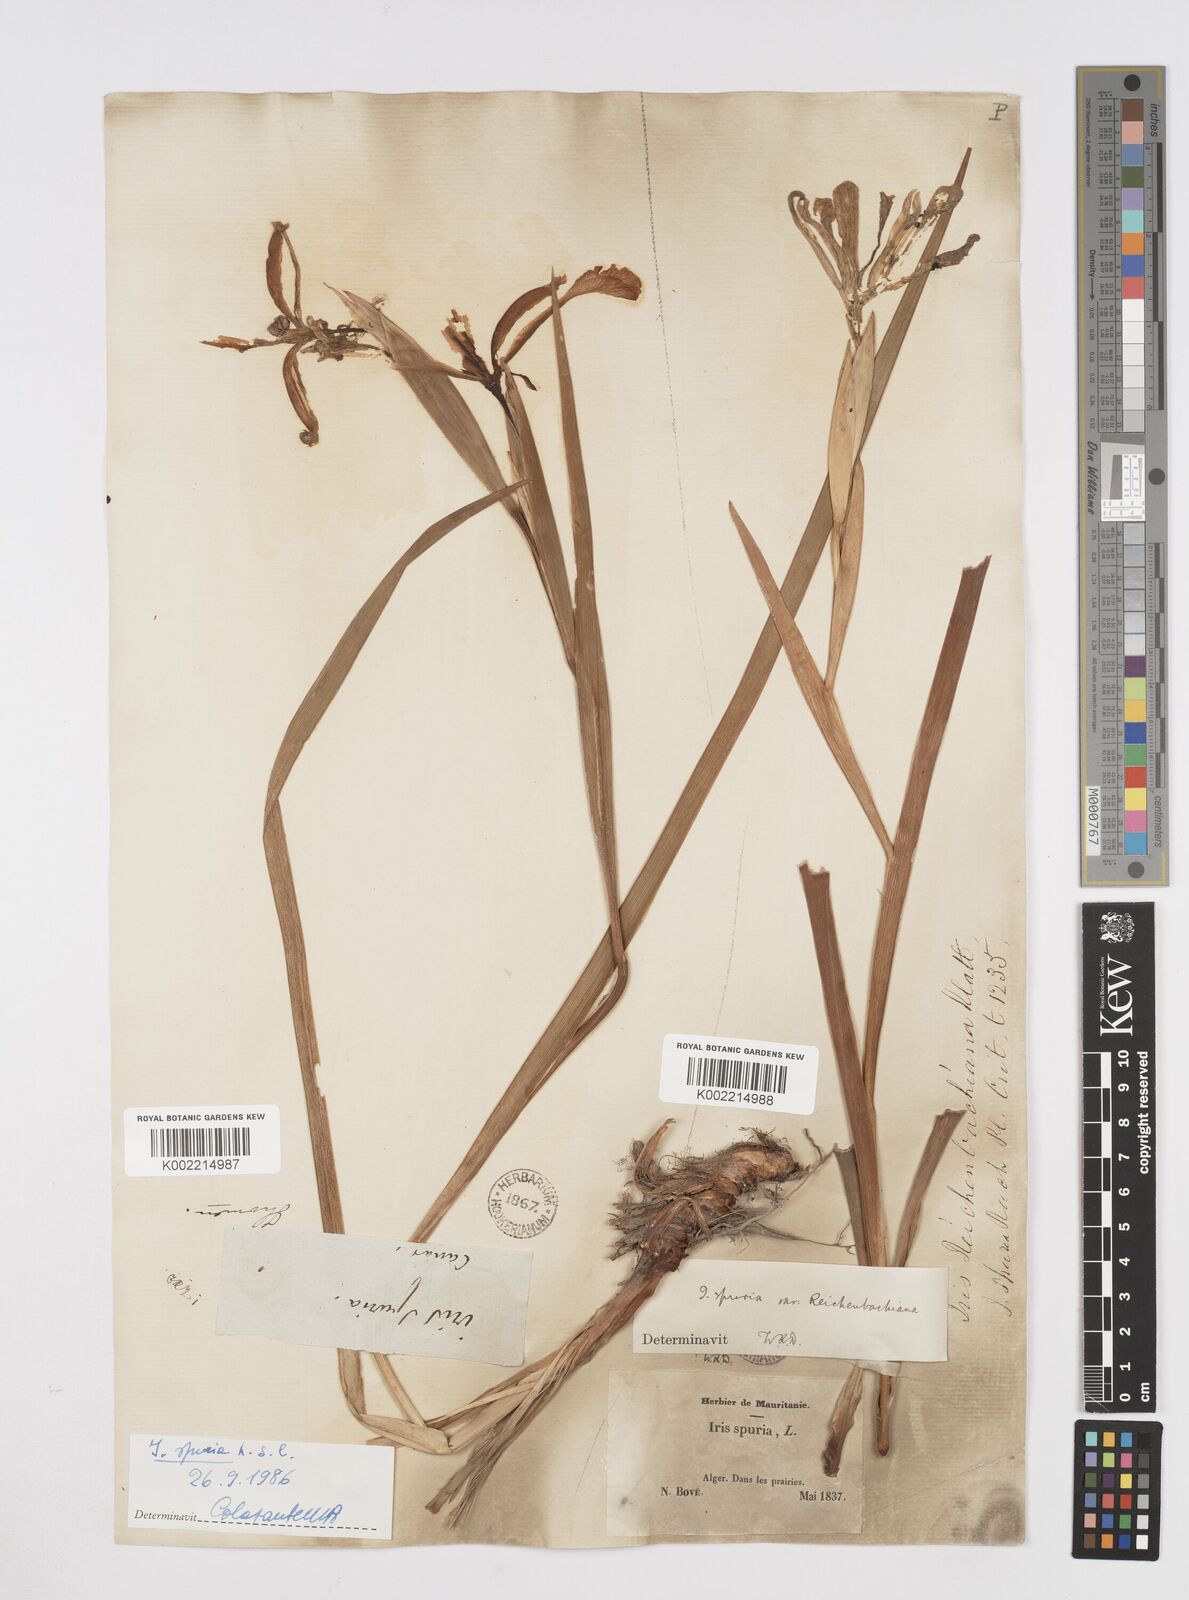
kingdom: Plantae
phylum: Tracheophyta
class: Liliopsida
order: Asparagales
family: Iridaceae
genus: Iris
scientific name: Iris spuria
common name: Blue iris
